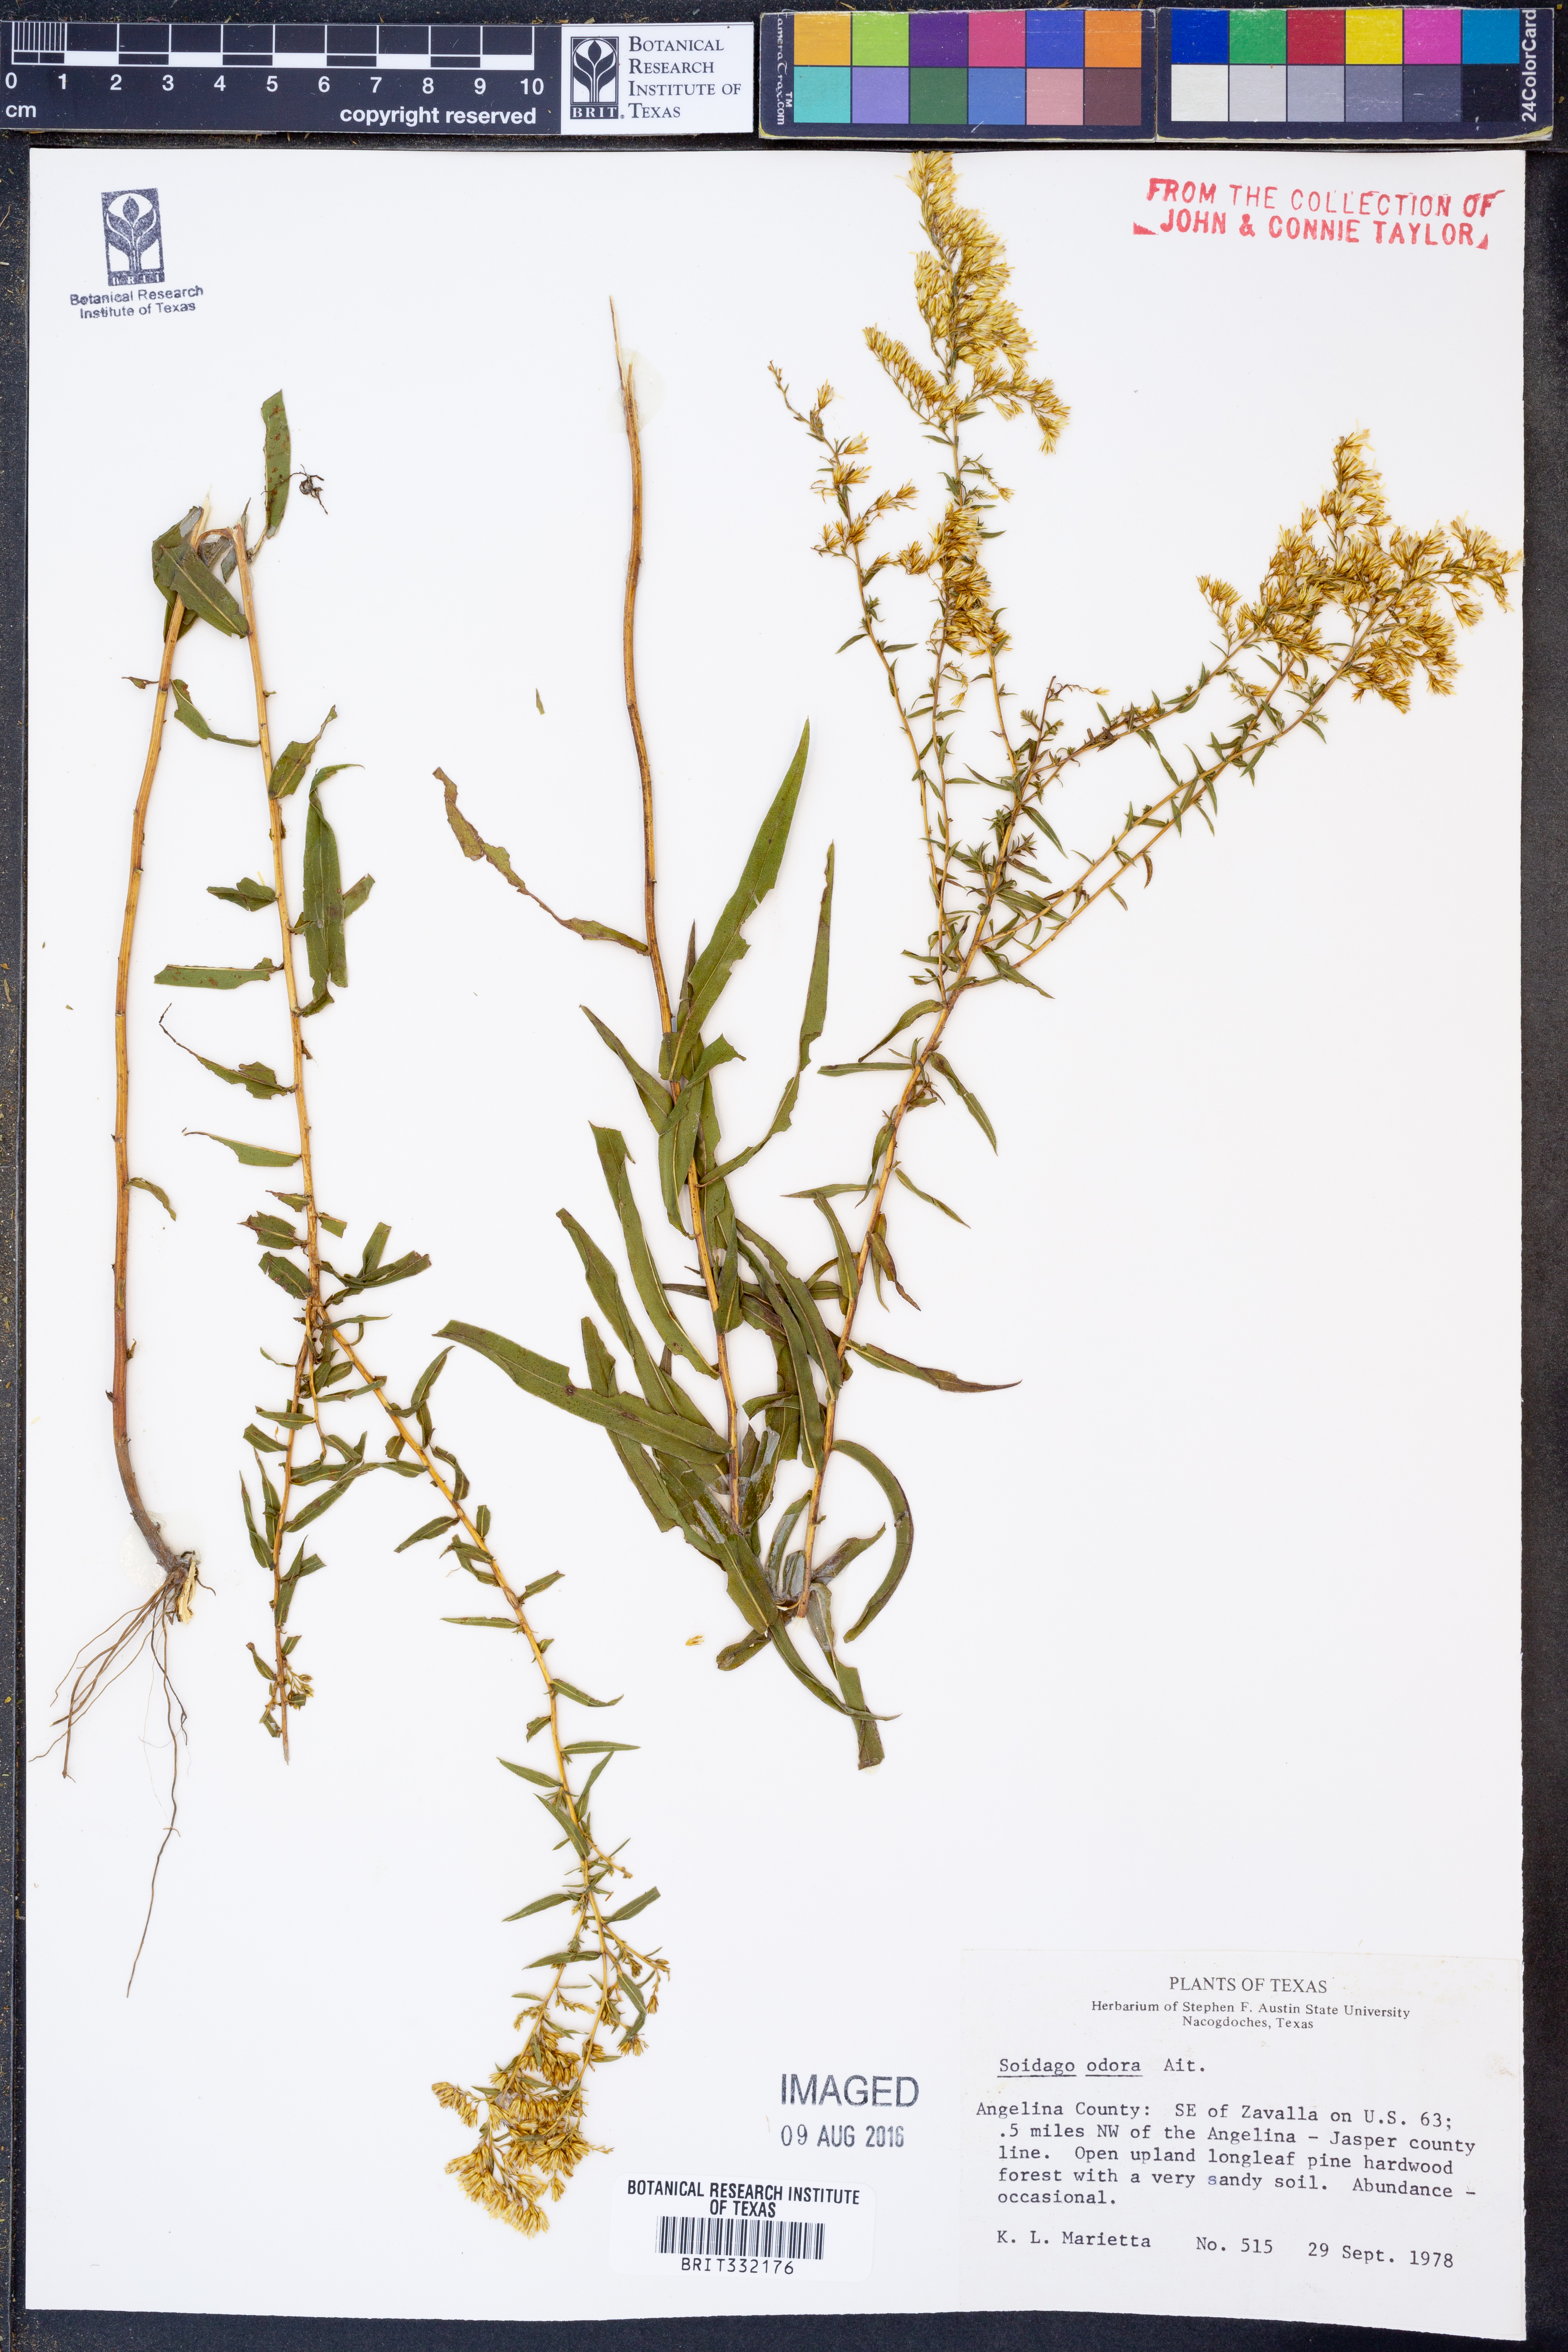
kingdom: Plantae
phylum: Tracheophyta
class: Magnoliopsida
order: Asterales
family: Asteraceae
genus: Solidago
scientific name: Solidago rugosa
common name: Rough-stemmed goldenrod
